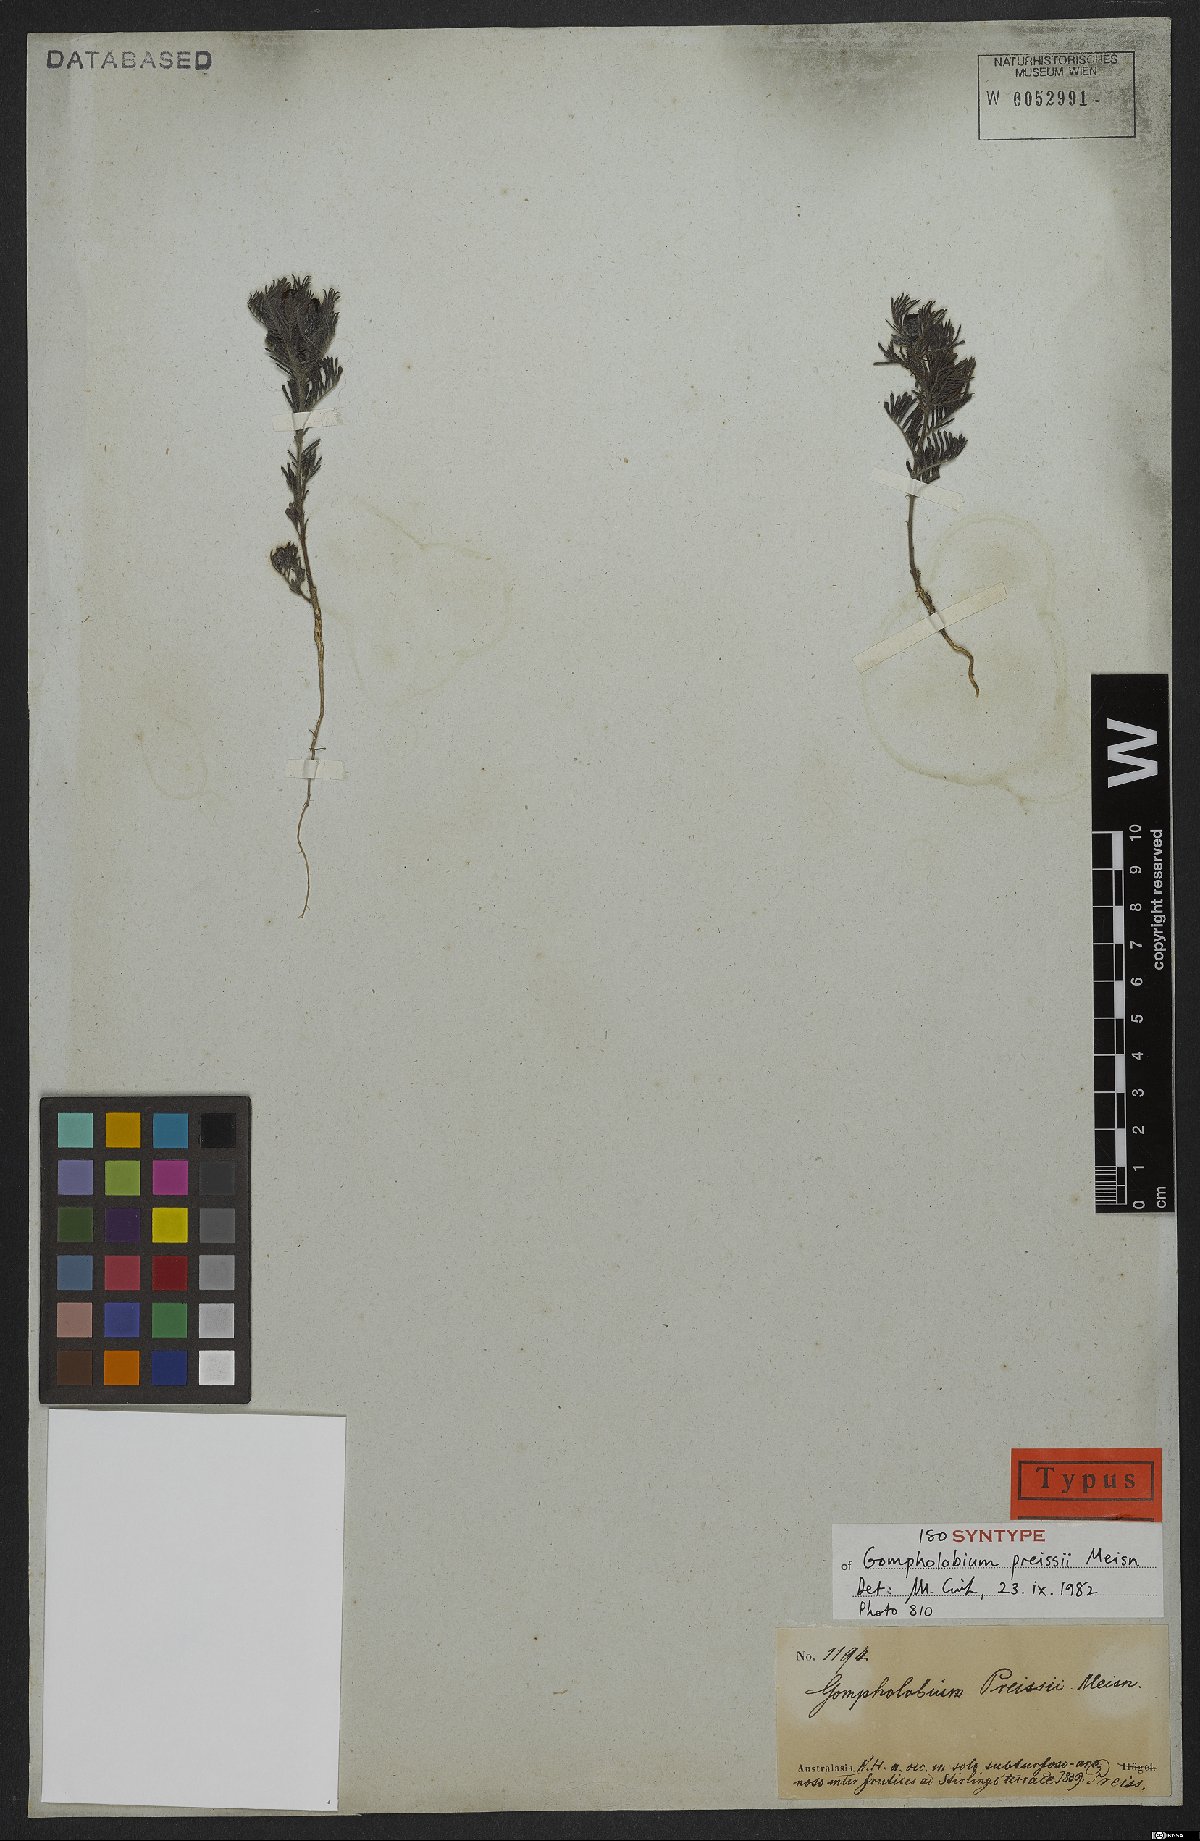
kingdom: Plantae
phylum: Tracheophyta
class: Magnoliopsida
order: Fabales
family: Fabaceae
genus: Gompholobium
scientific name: Gompholobium preissii
